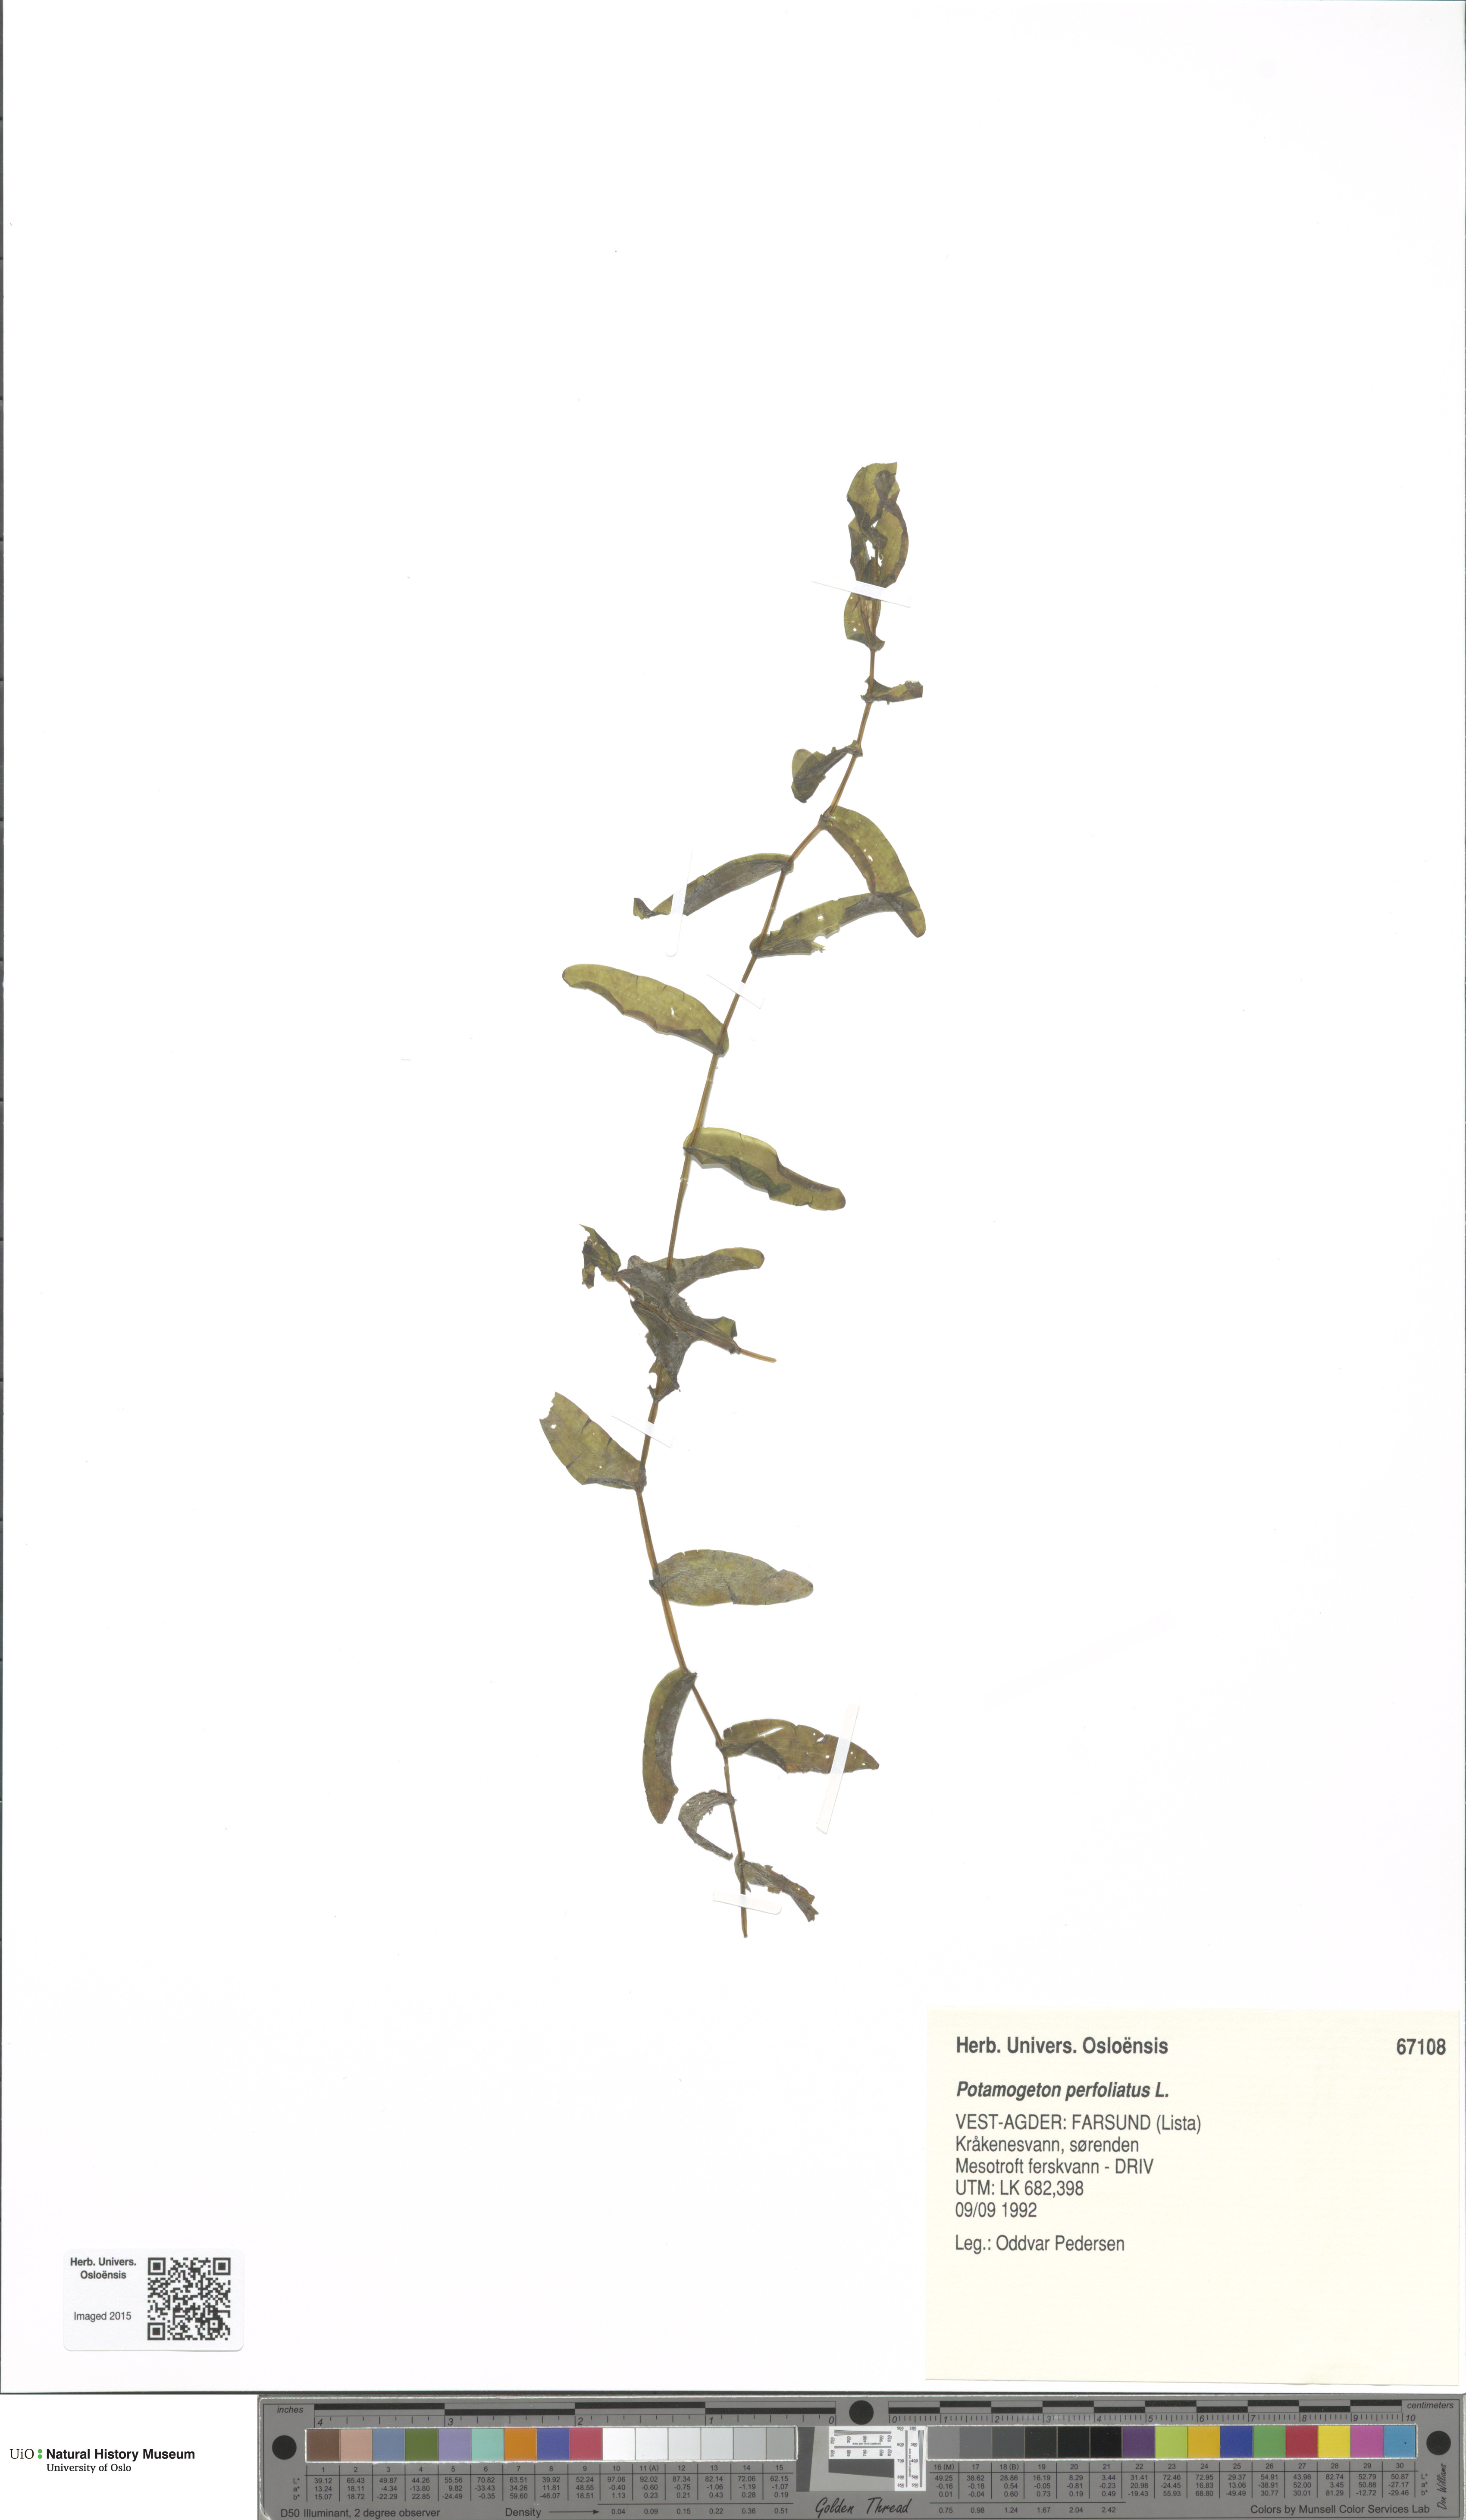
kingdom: Plantae
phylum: Tracheophyta
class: Liliopsida
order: Alismatales
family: Potamogetonaceae
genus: Potamogeton
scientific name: Potamogeton perfoliatus
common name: Perfoliate pondweed
